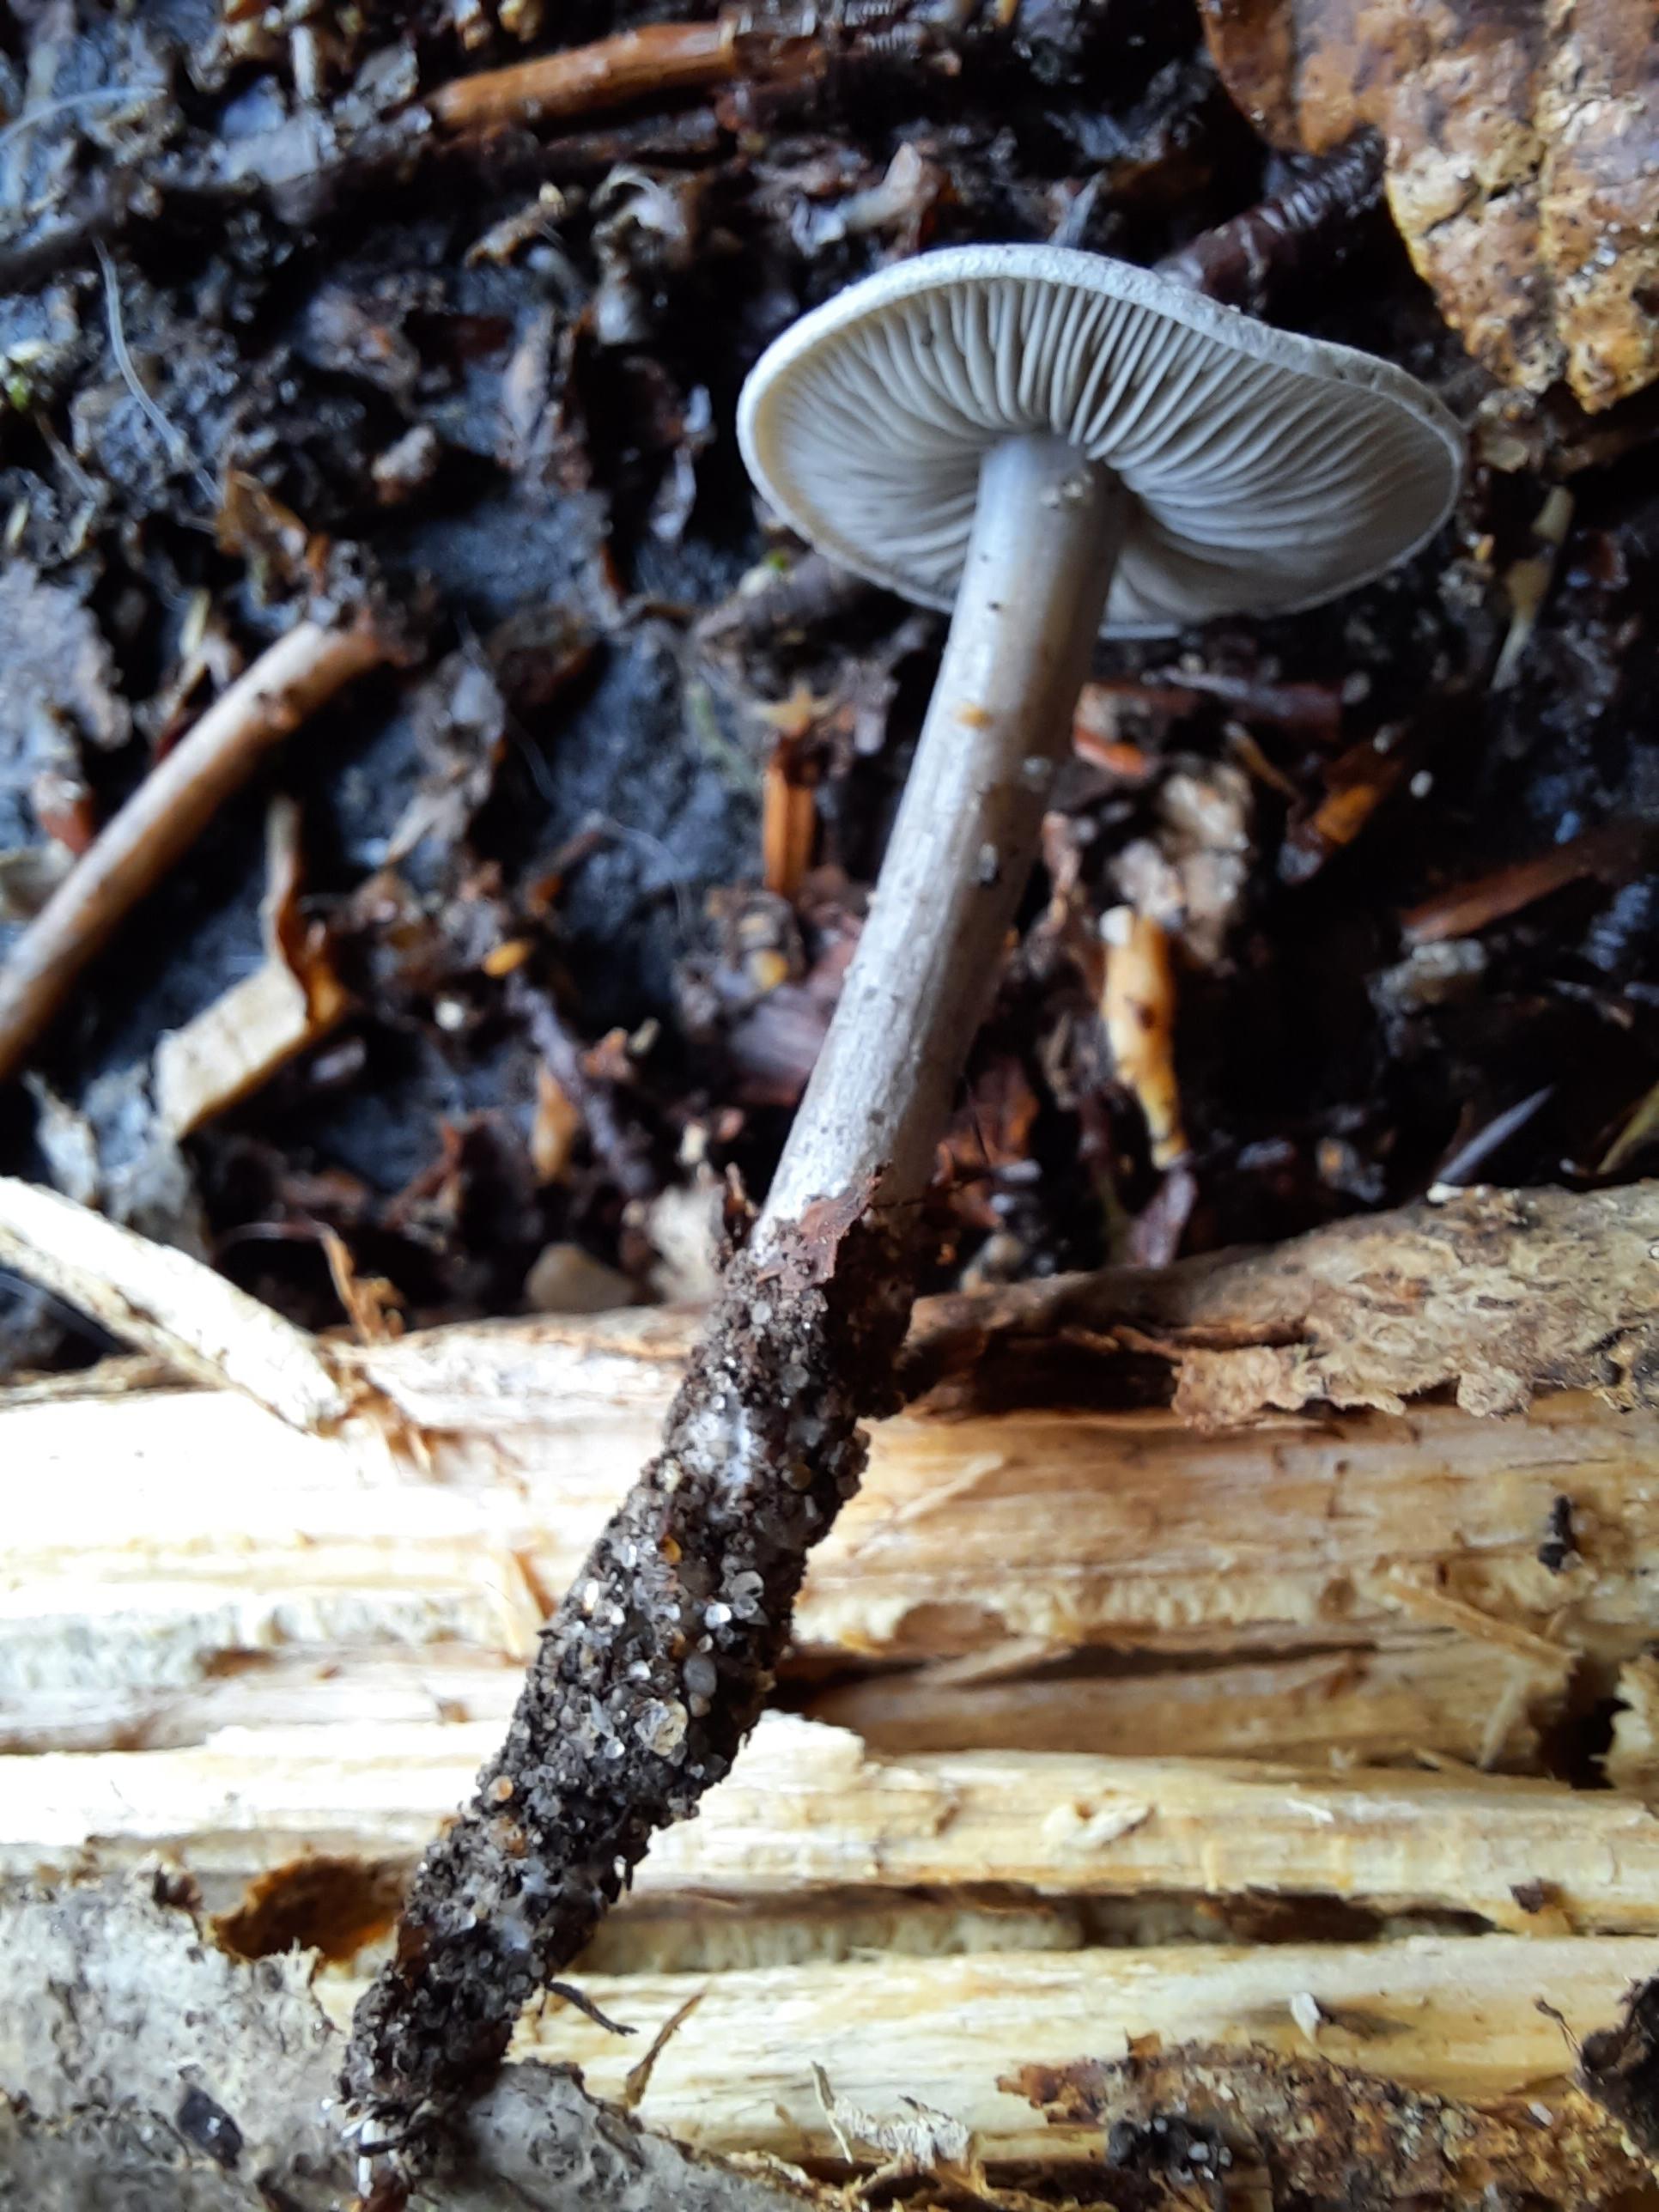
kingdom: Fungi
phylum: Basidiomycota
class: Agaricomycetes
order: Agaricales
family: Lyophyllaceae
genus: Tephrocybe
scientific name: Tephrocybe rancida
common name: mel-gråblad
